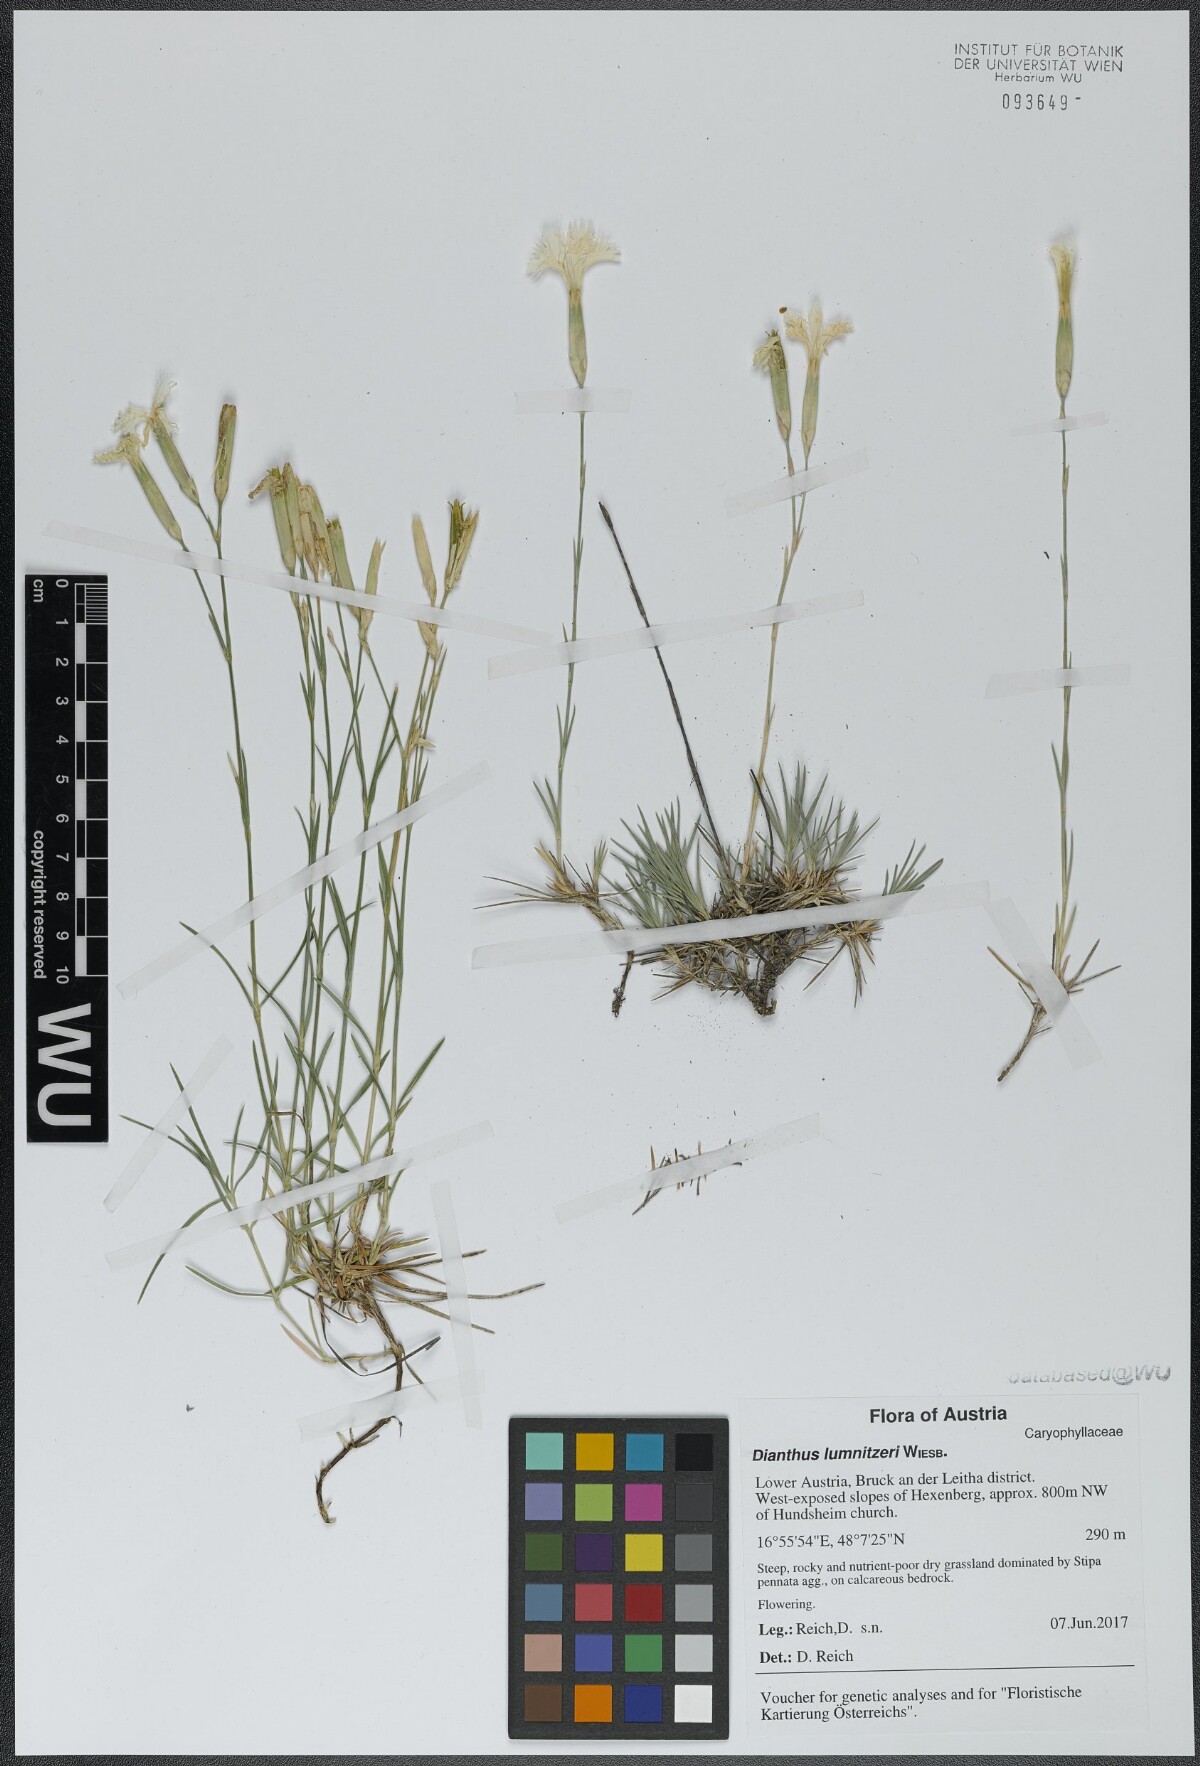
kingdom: Plantae
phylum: Tracheophyta
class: Magnoliopsida
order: Caryophyllales
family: Caryophyllaceae
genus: Dianthus
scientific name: Dianthus praecox
